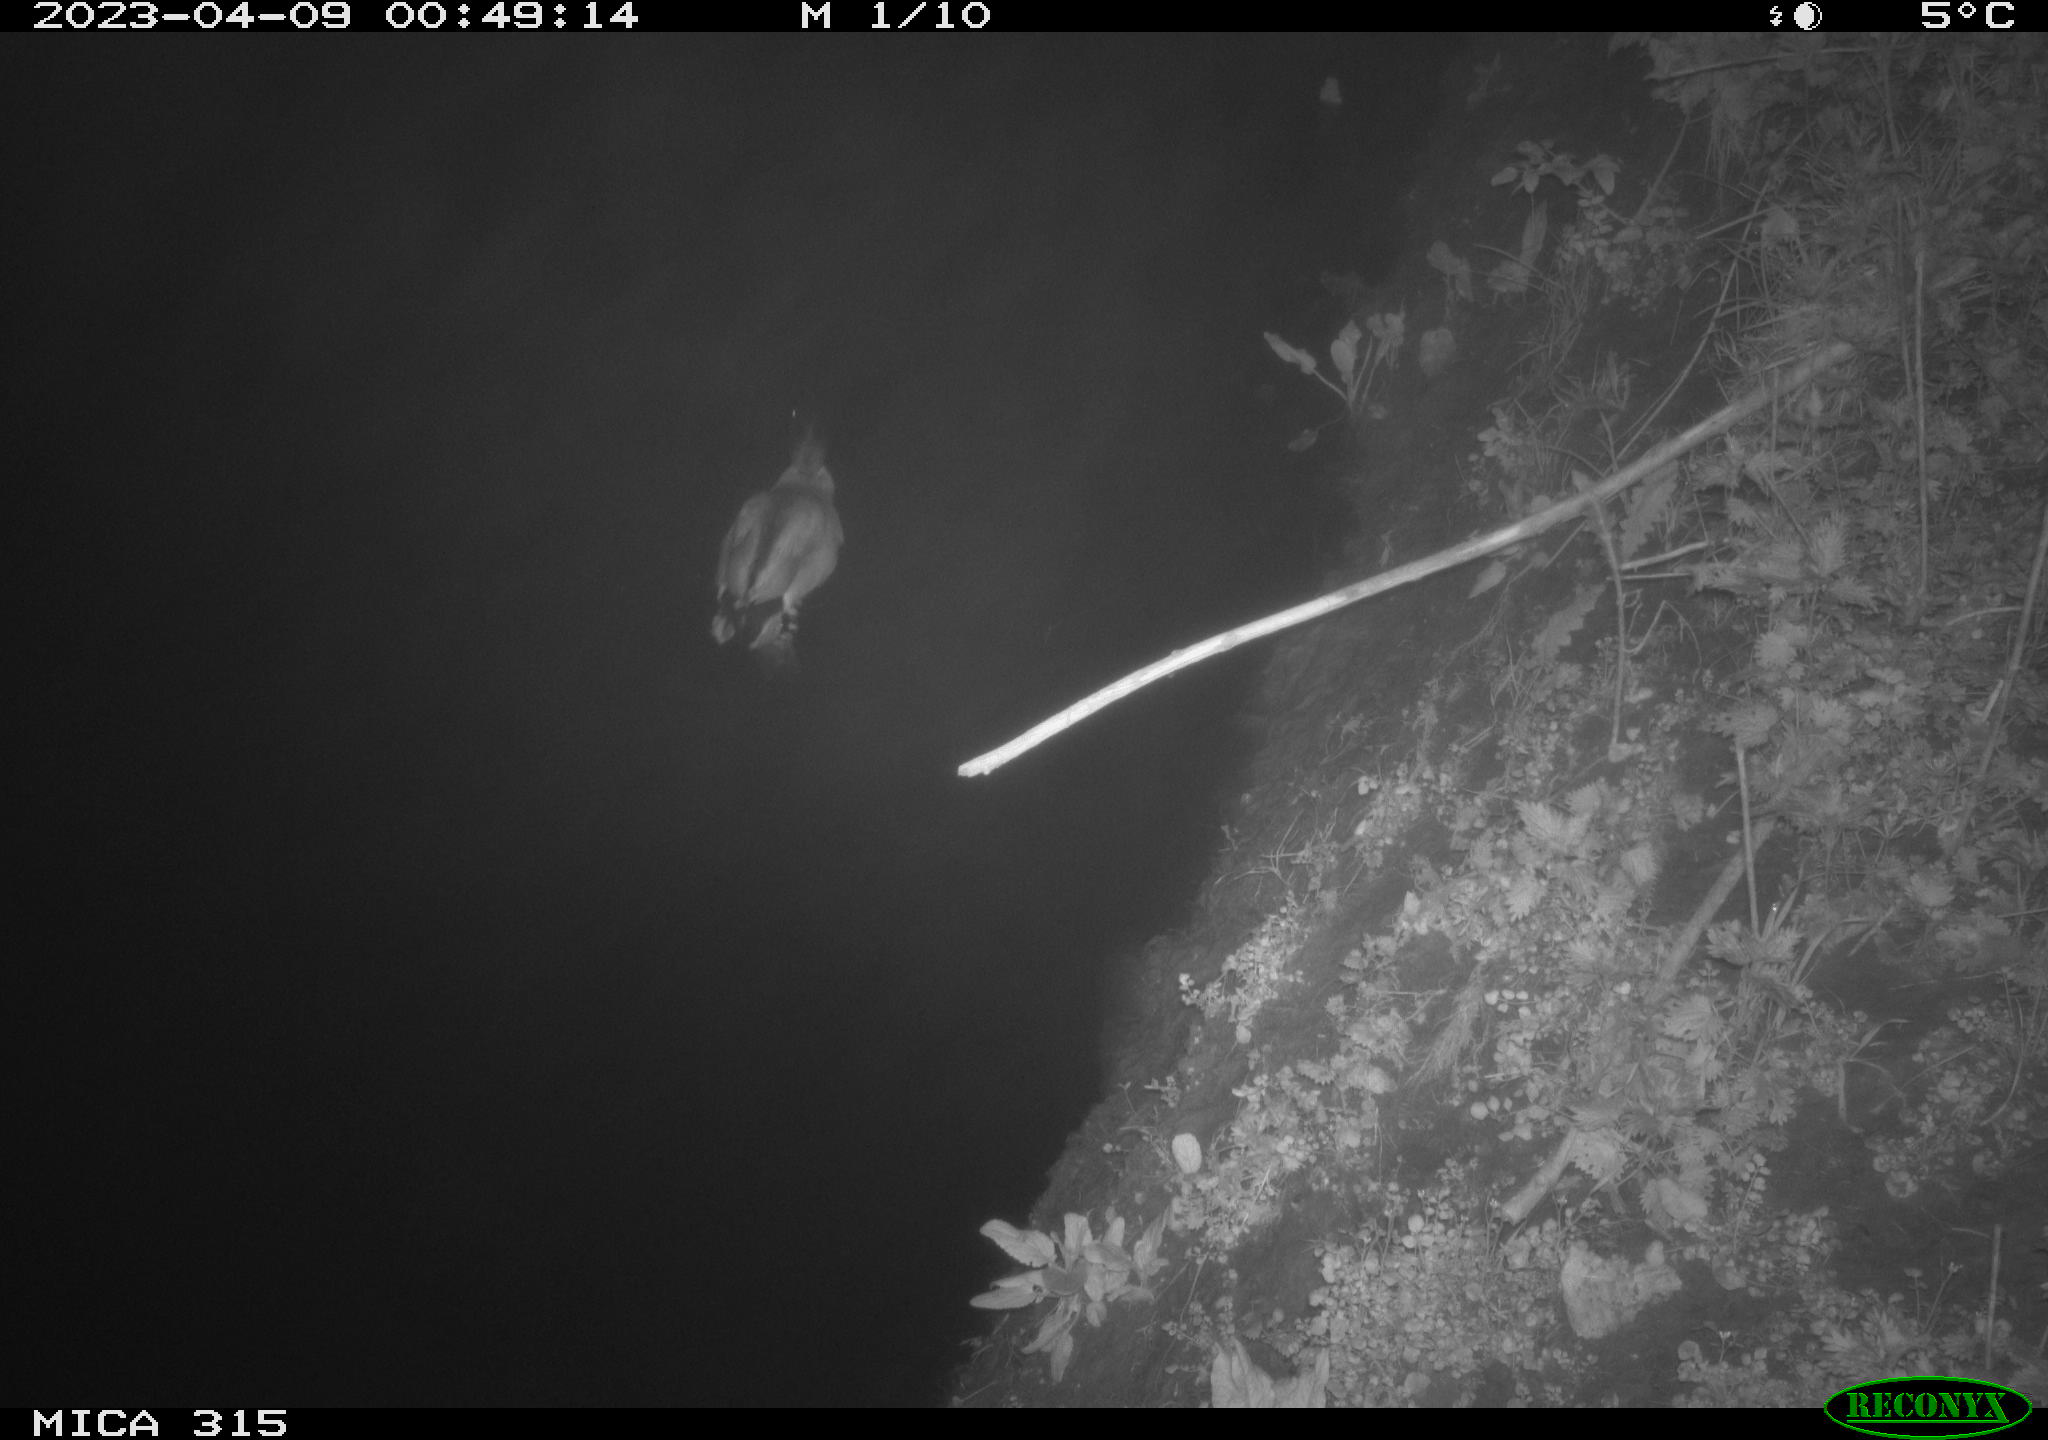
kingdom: Animalia
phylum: Chordata
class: Aves
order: Anseriformes
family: Anatidae
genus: Anas
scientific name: Anas
